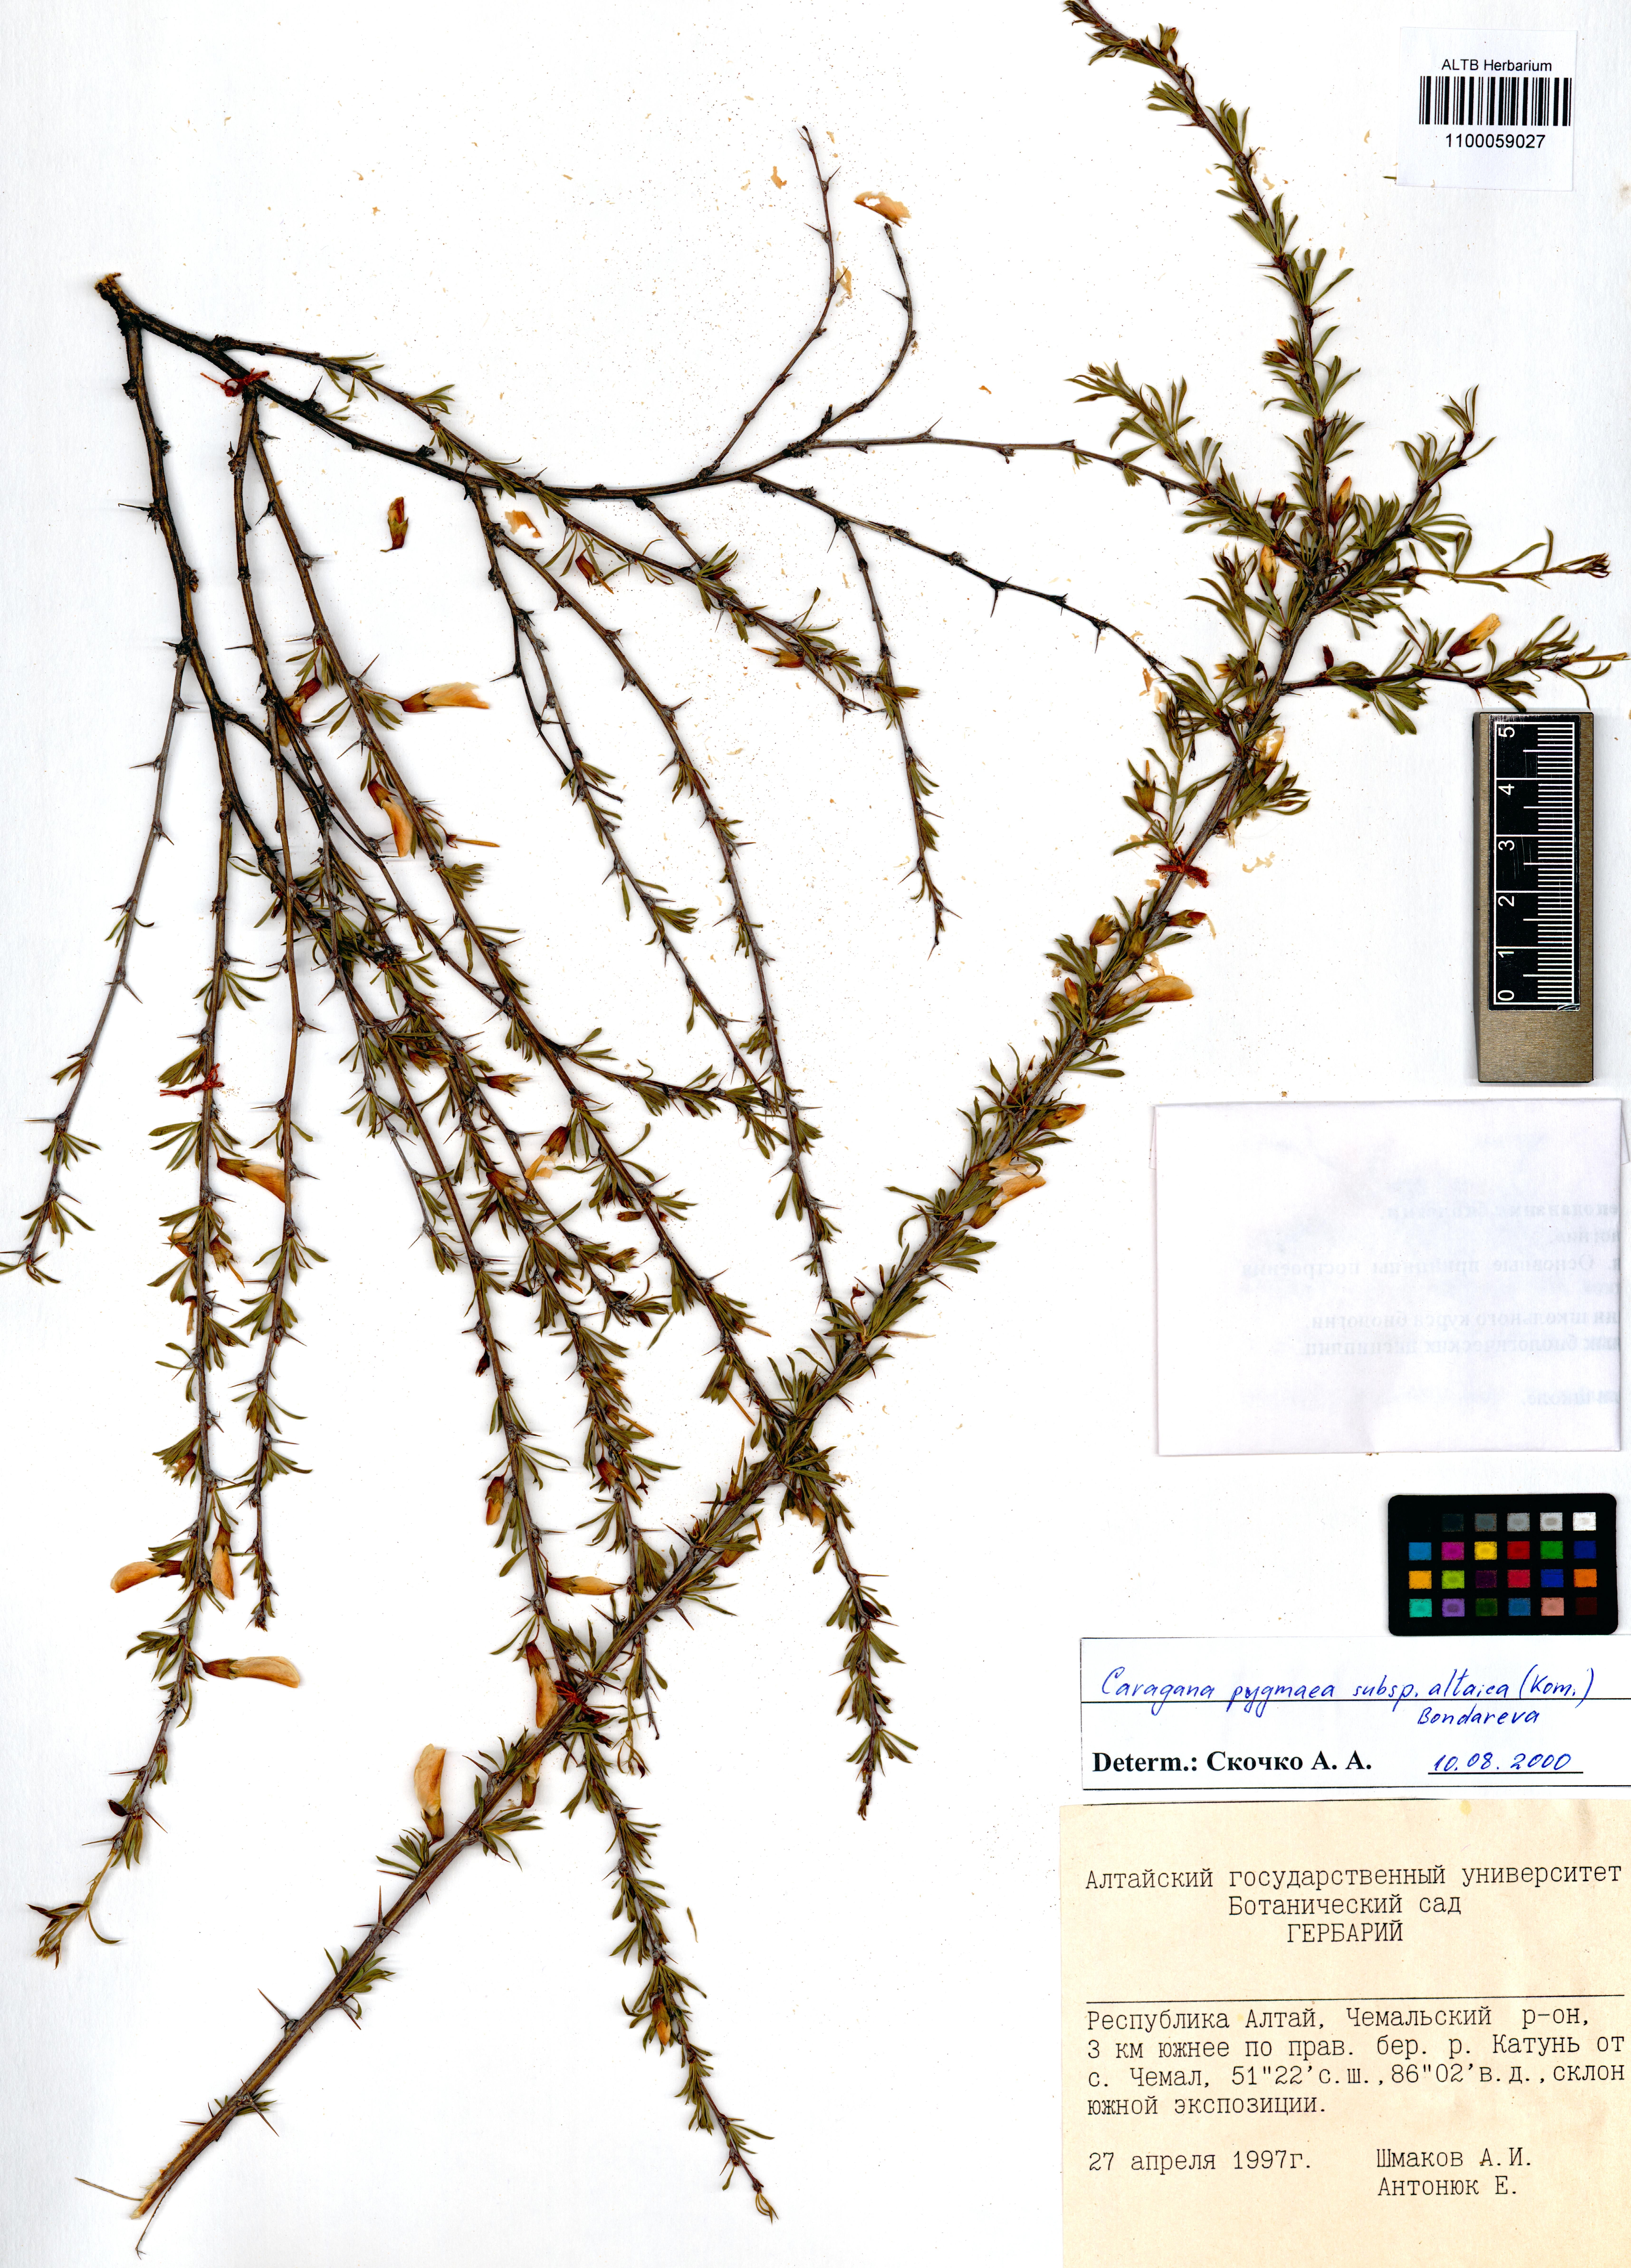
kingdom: Plantae
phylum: Tracheophyta
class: Magnoliopsida
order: Fabales
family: Fabaceae
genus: Caragana
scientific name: Caragana pygmaea
